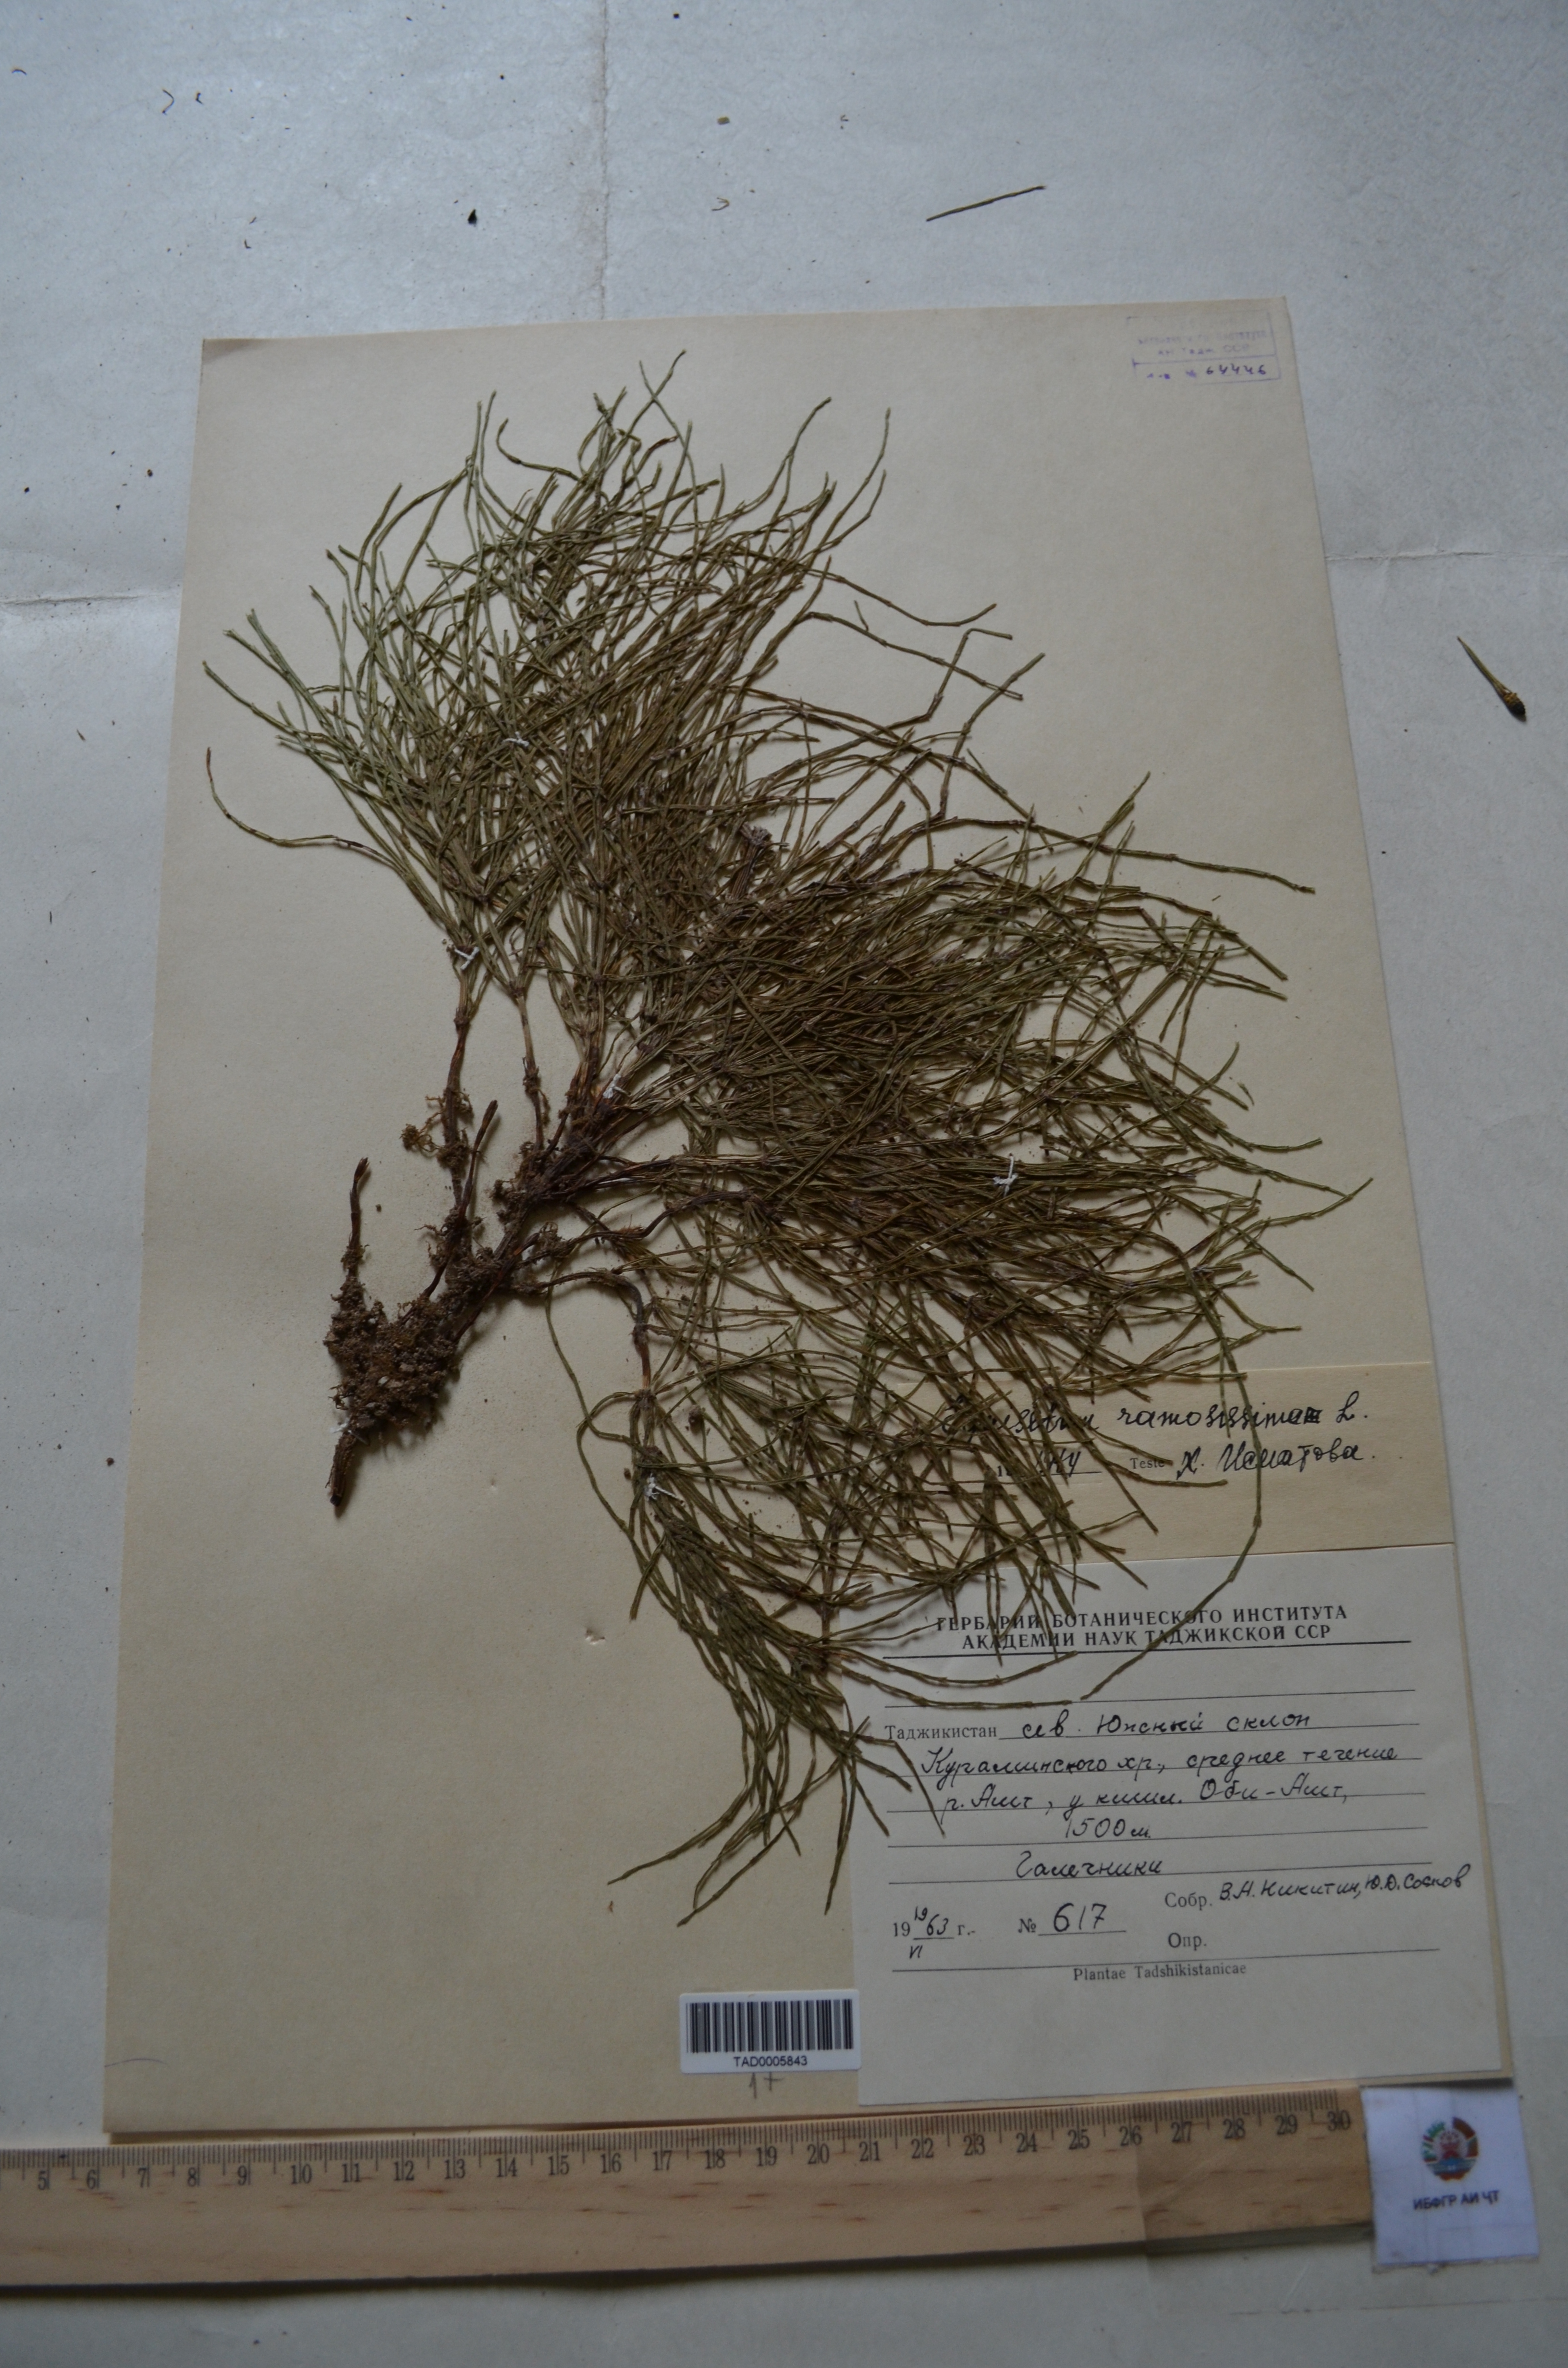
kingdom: Plantae
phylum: Tracheophyta
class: Polypodiopsida
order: Equisetales
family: Equisetaceae
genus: Equisetum
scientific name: Equisetum ramosissimum
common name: Branched horsetail
